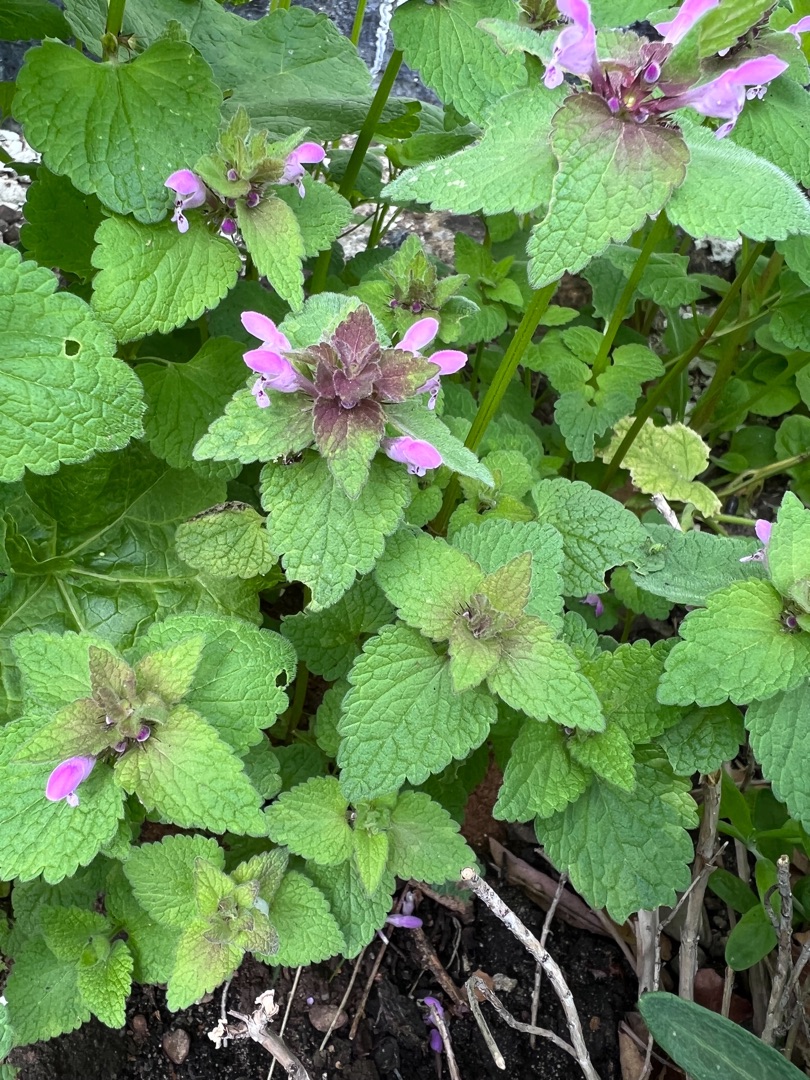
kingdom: Plantae
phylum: Tracheophyta
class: Magnoliopsida
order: Lamiales
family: Lamiaceae
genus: Lamium
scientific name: Lamium purpureum
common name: Rød tvetand
